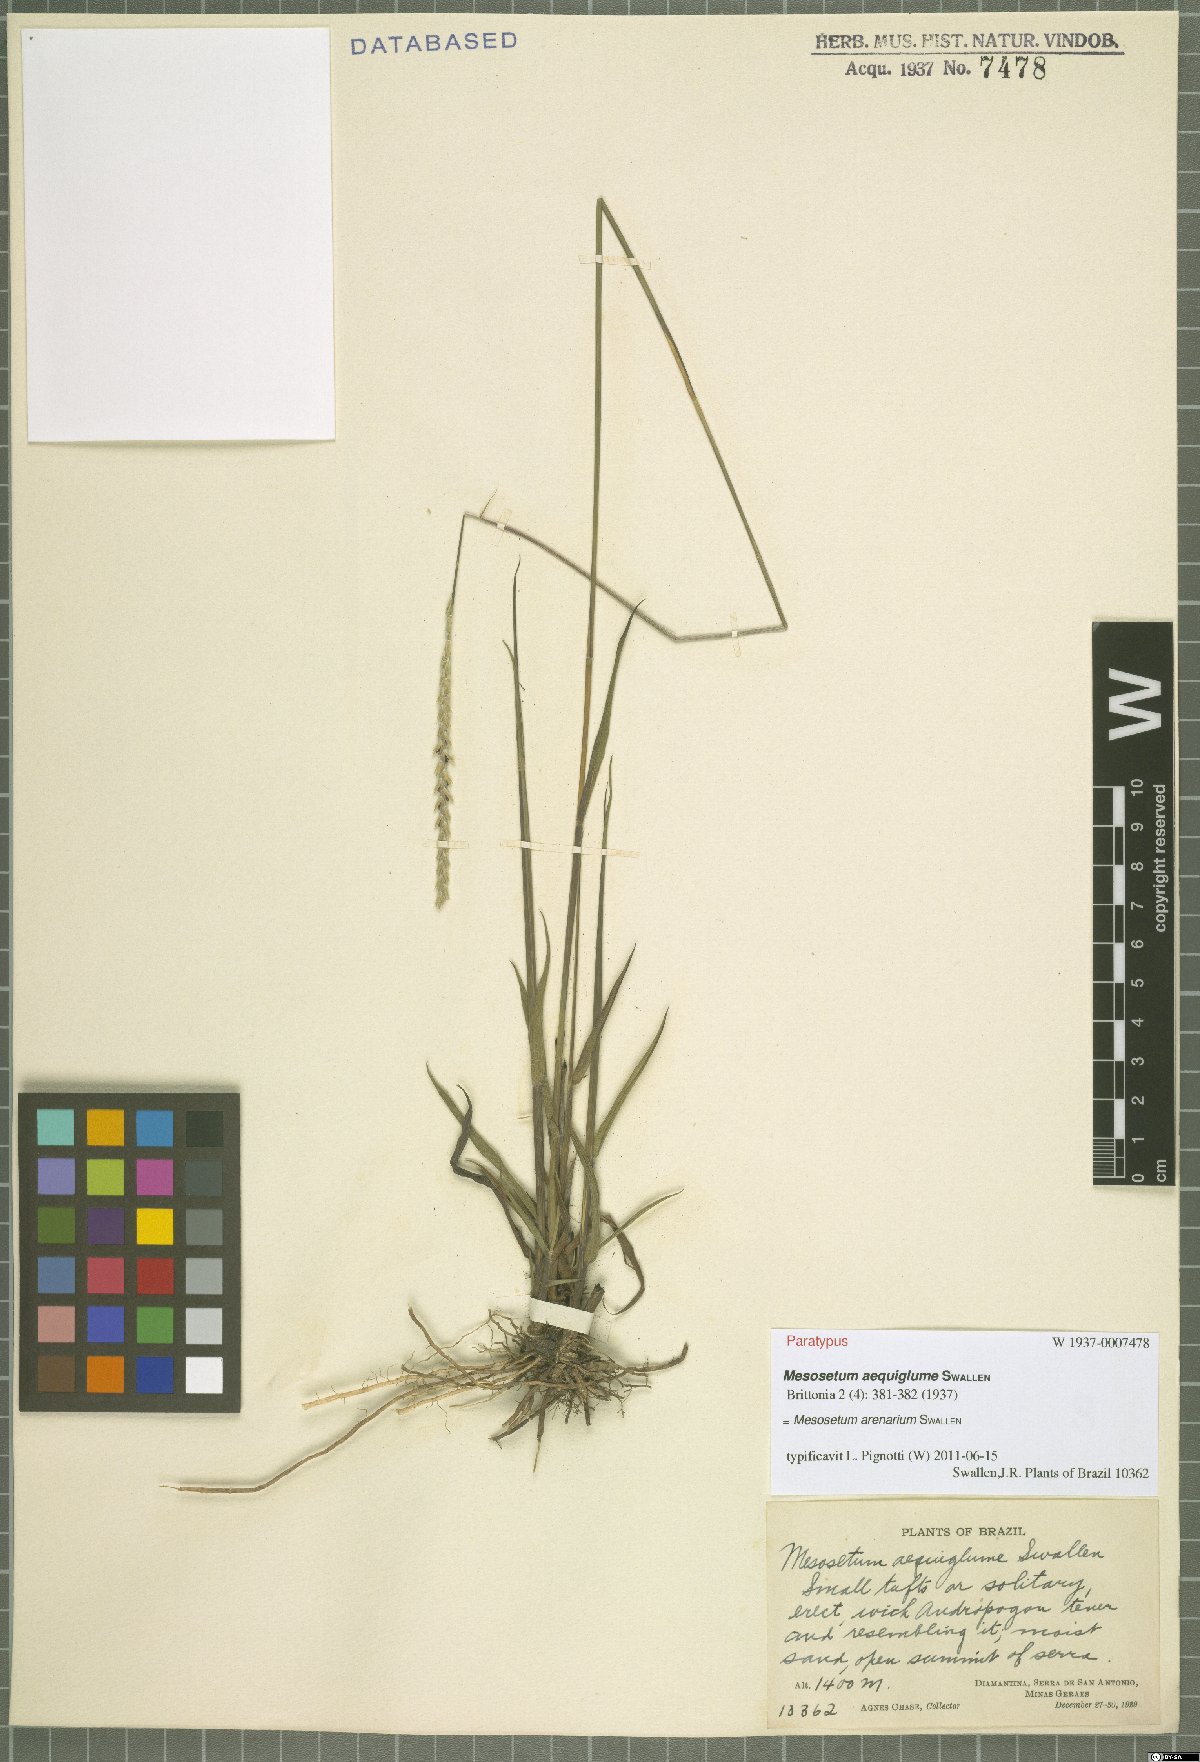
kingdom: Plantae
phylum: Tracheophyta
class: Liliopsida
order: Poales
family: Poaceae
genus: Mesosetum
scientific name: Mesosetum arenarium
